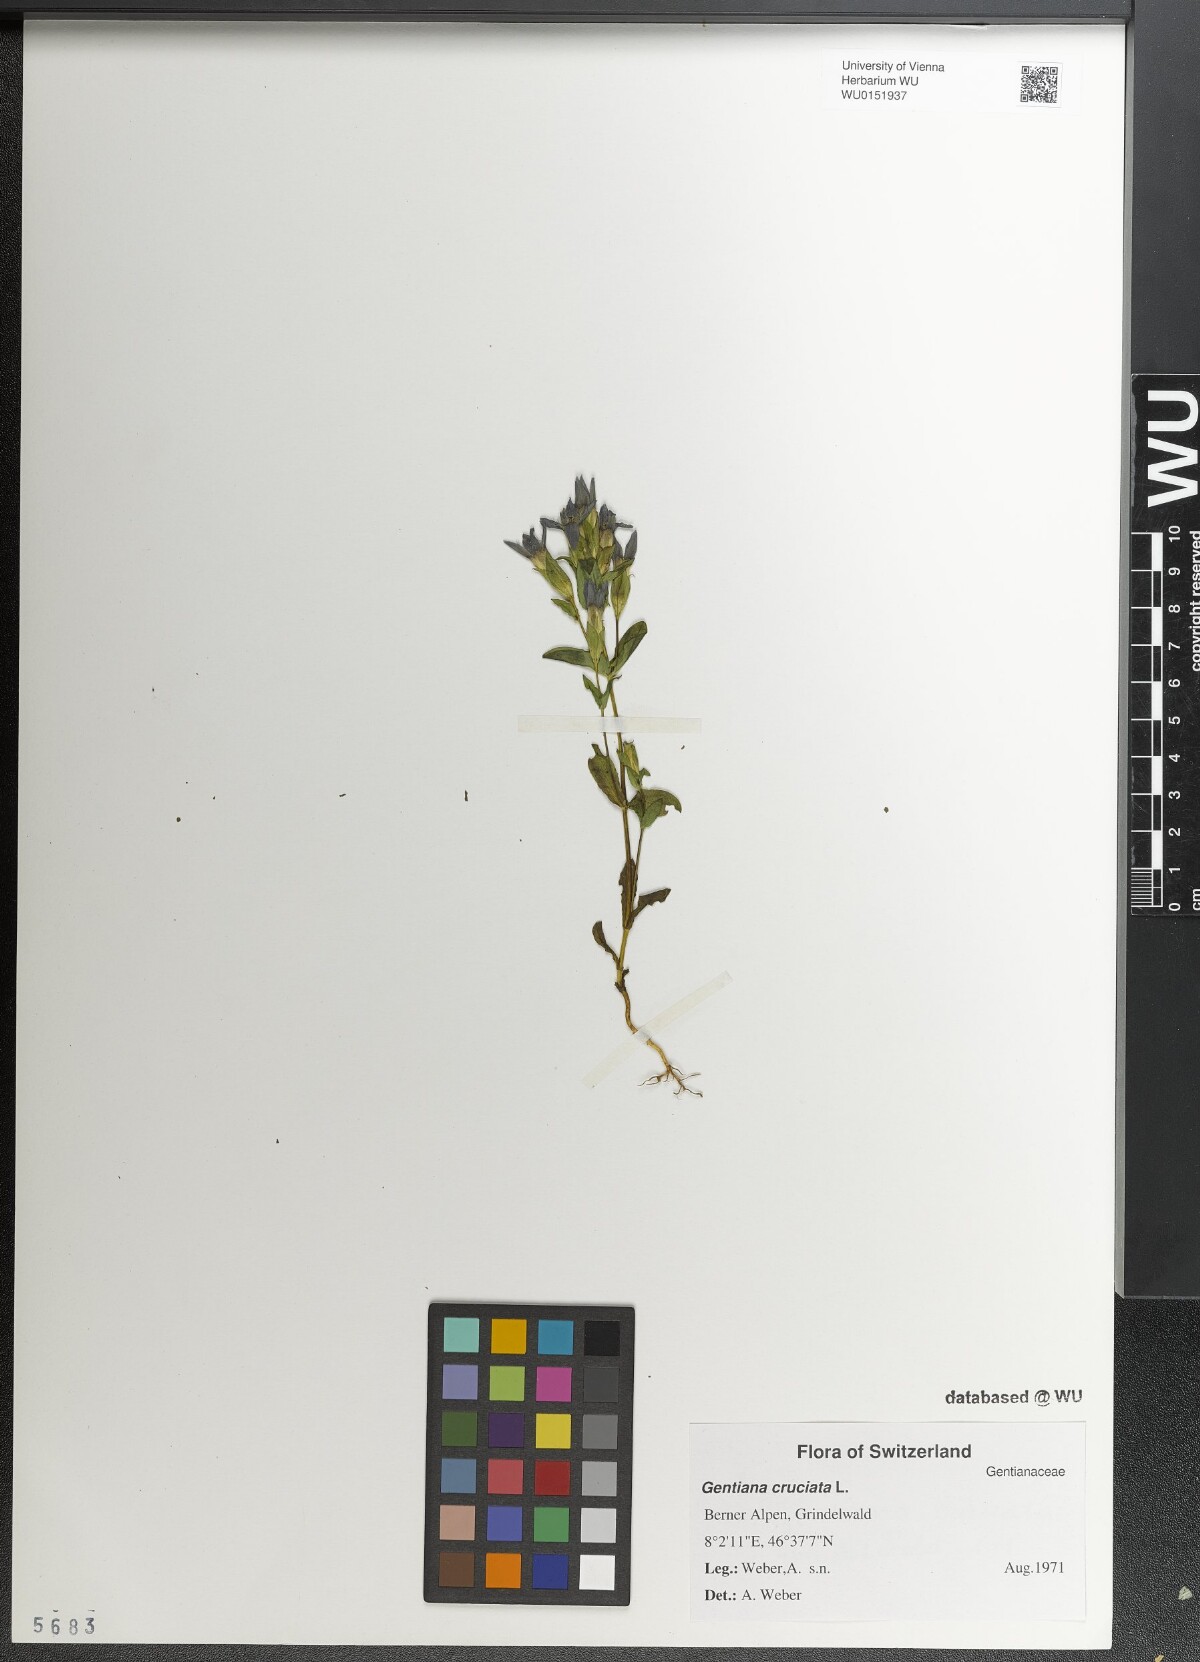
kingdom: Plantae
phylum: Tracheophyta
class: Magnoliopsida
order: Gentianales
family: Gentianaceae
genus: Gentianella
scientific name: Gentianella campestris
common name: Field gentian
